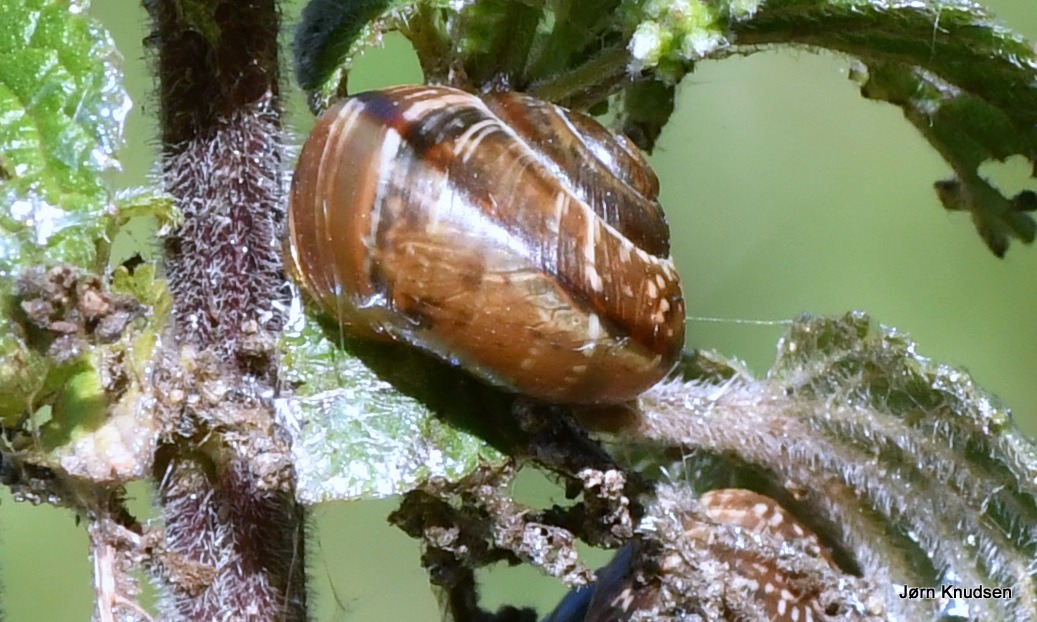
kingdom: Animalia
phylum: Mollusca
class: Gastropoda
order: Stylommatophora
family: Helicidae
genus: Arianta
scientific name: Arianta arbustorum
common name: Kratsnegl
